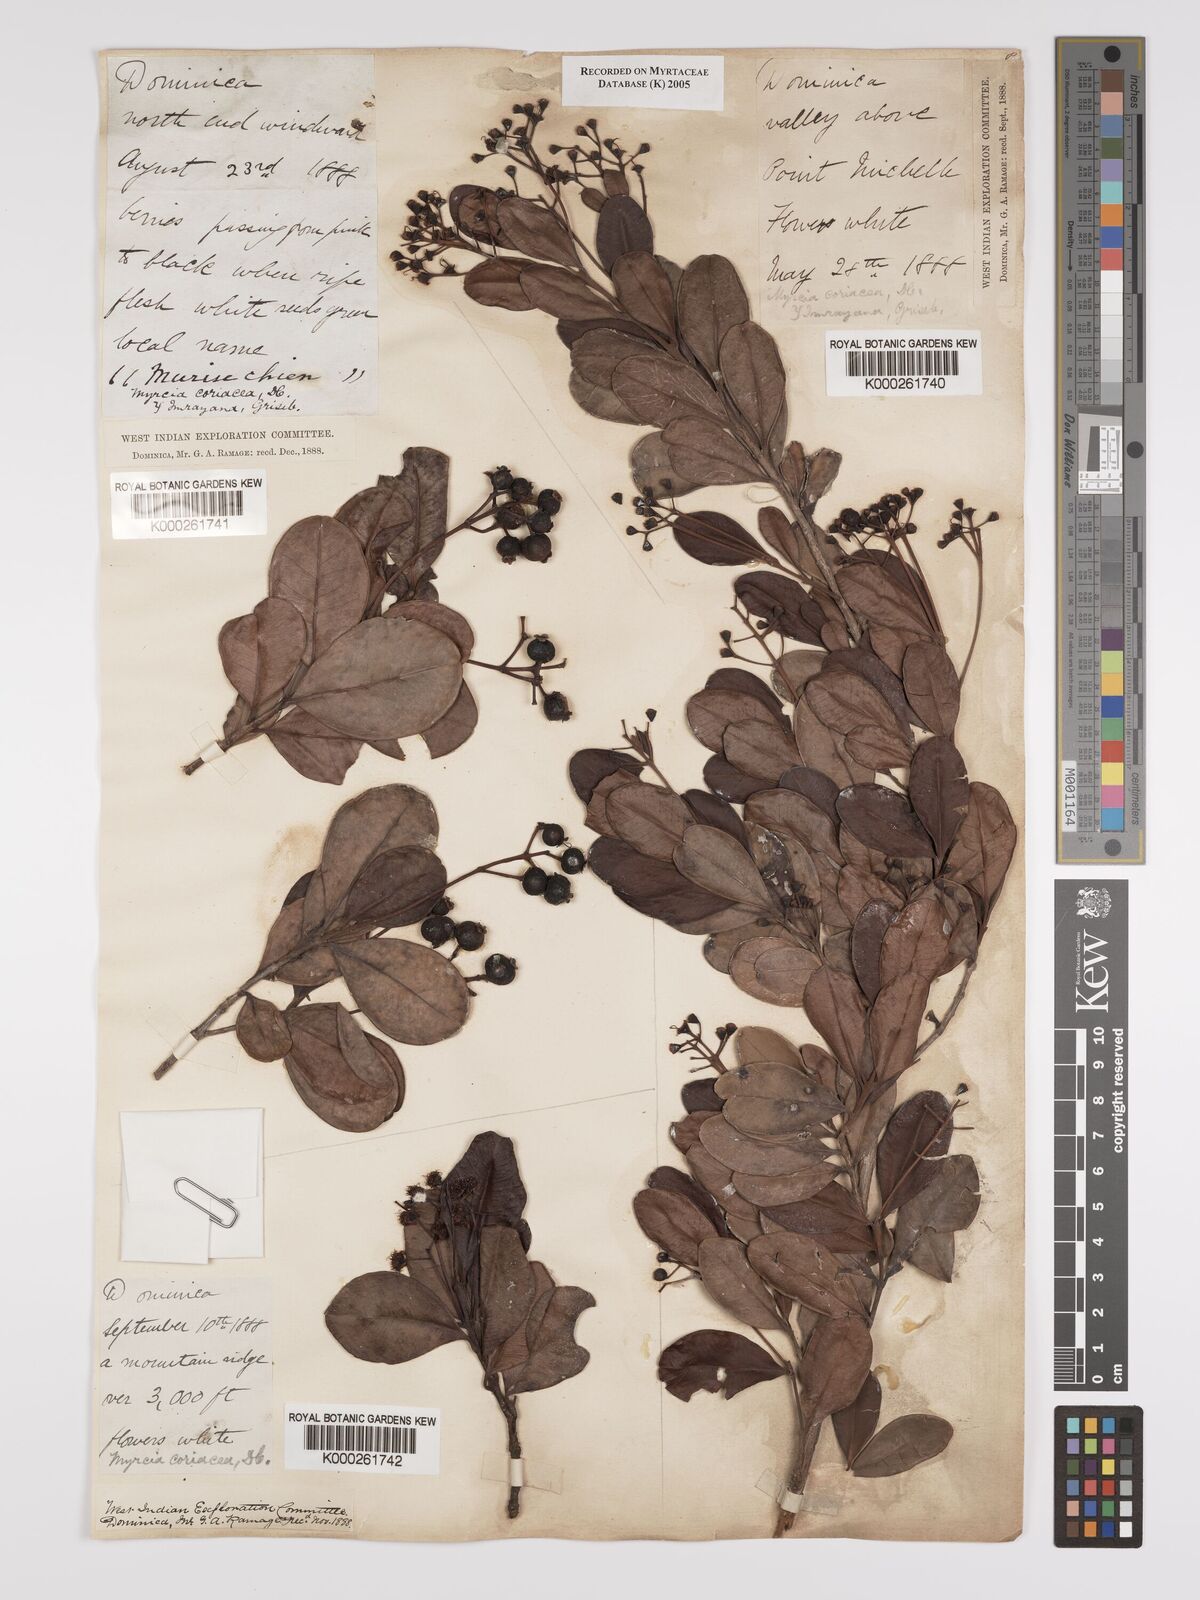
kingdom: Plantae
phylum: Tracheophyta
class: Magnoliopsida
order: Myrtales
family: Myrtaceae
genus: Myrcia
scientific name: Myrcia guianensis
